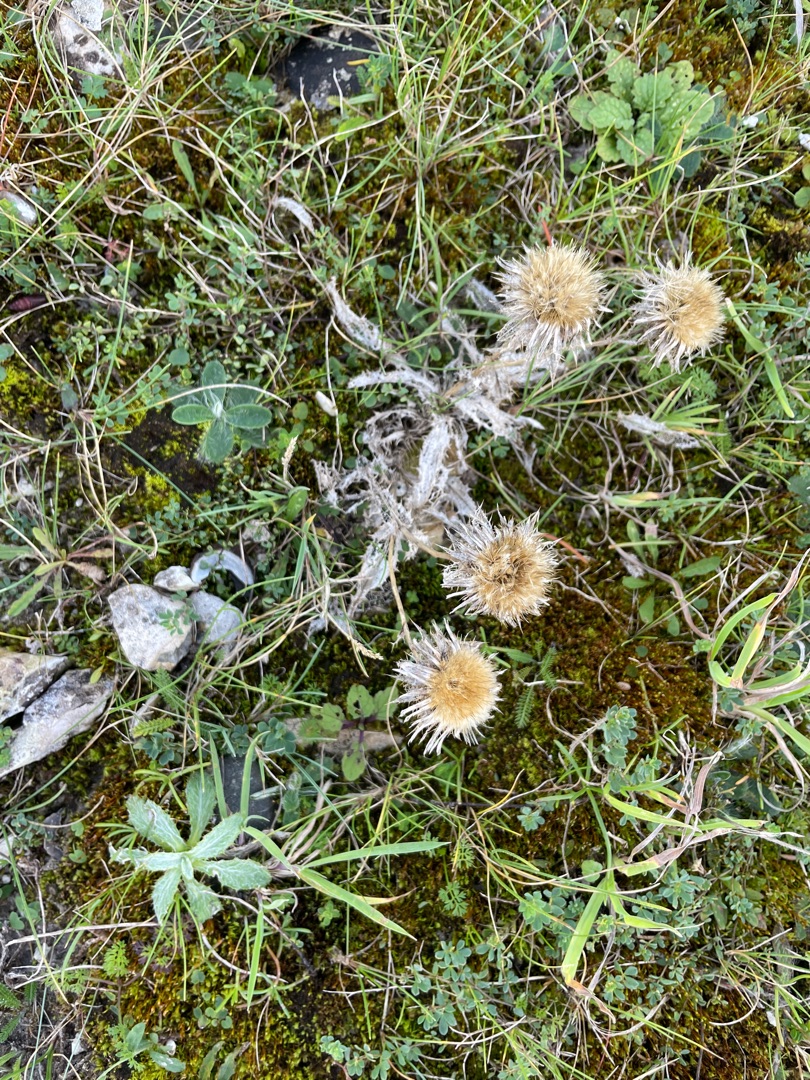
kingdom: Plantae
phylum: Tracheophyta
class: Magnoliopsida
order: Asterales
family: Asteraceae
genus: Carlina
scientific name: Carlina vulgaris
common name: Bakketidsel
